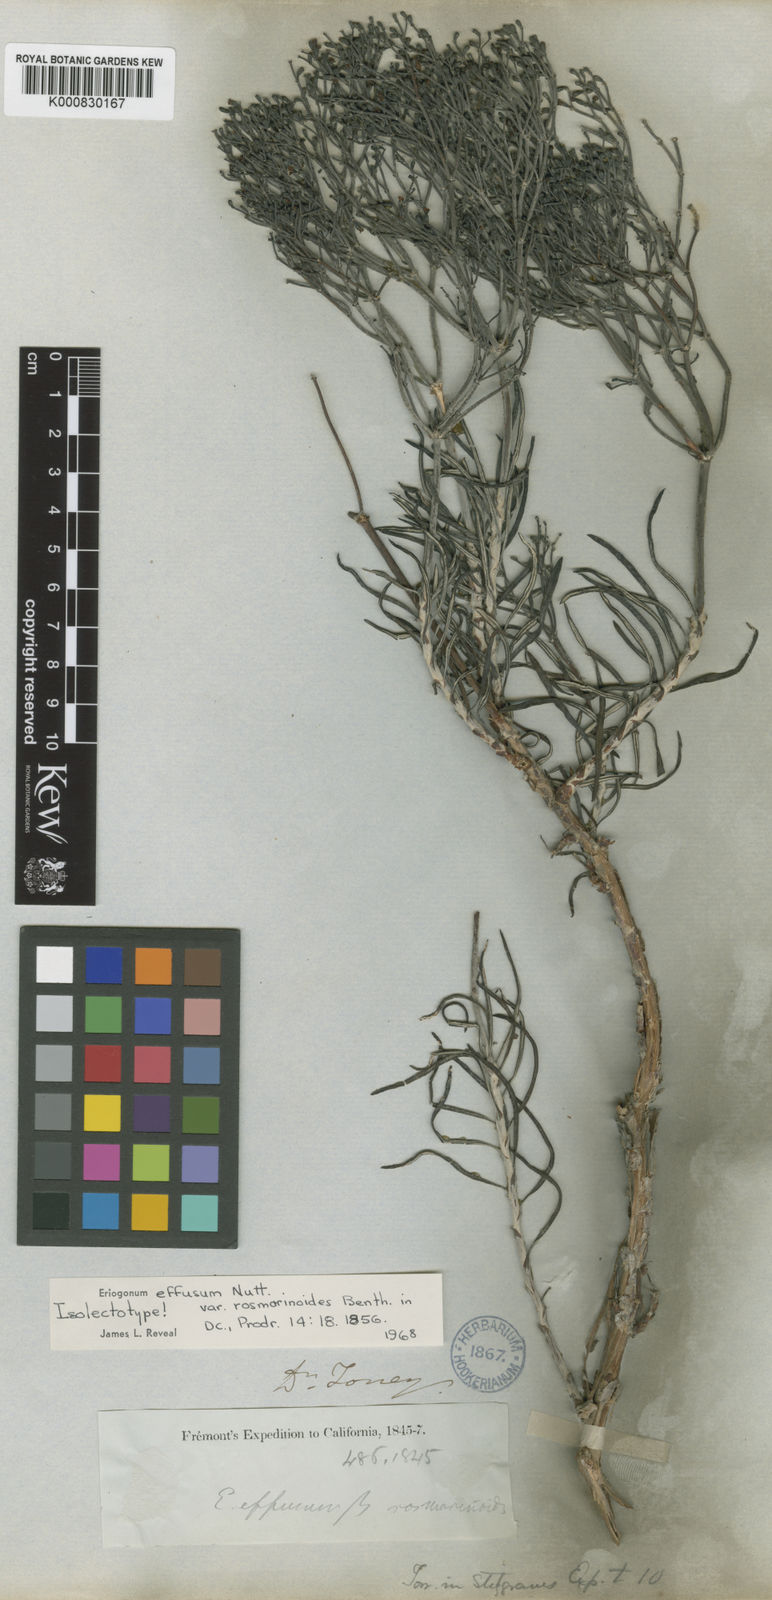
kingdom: Plantae
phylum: Tracheophyta
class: Magnoliopsida
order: Caryophyllales
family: Polygonaceae
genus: Eriogonum
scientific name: Eriogonum helichrysoides
